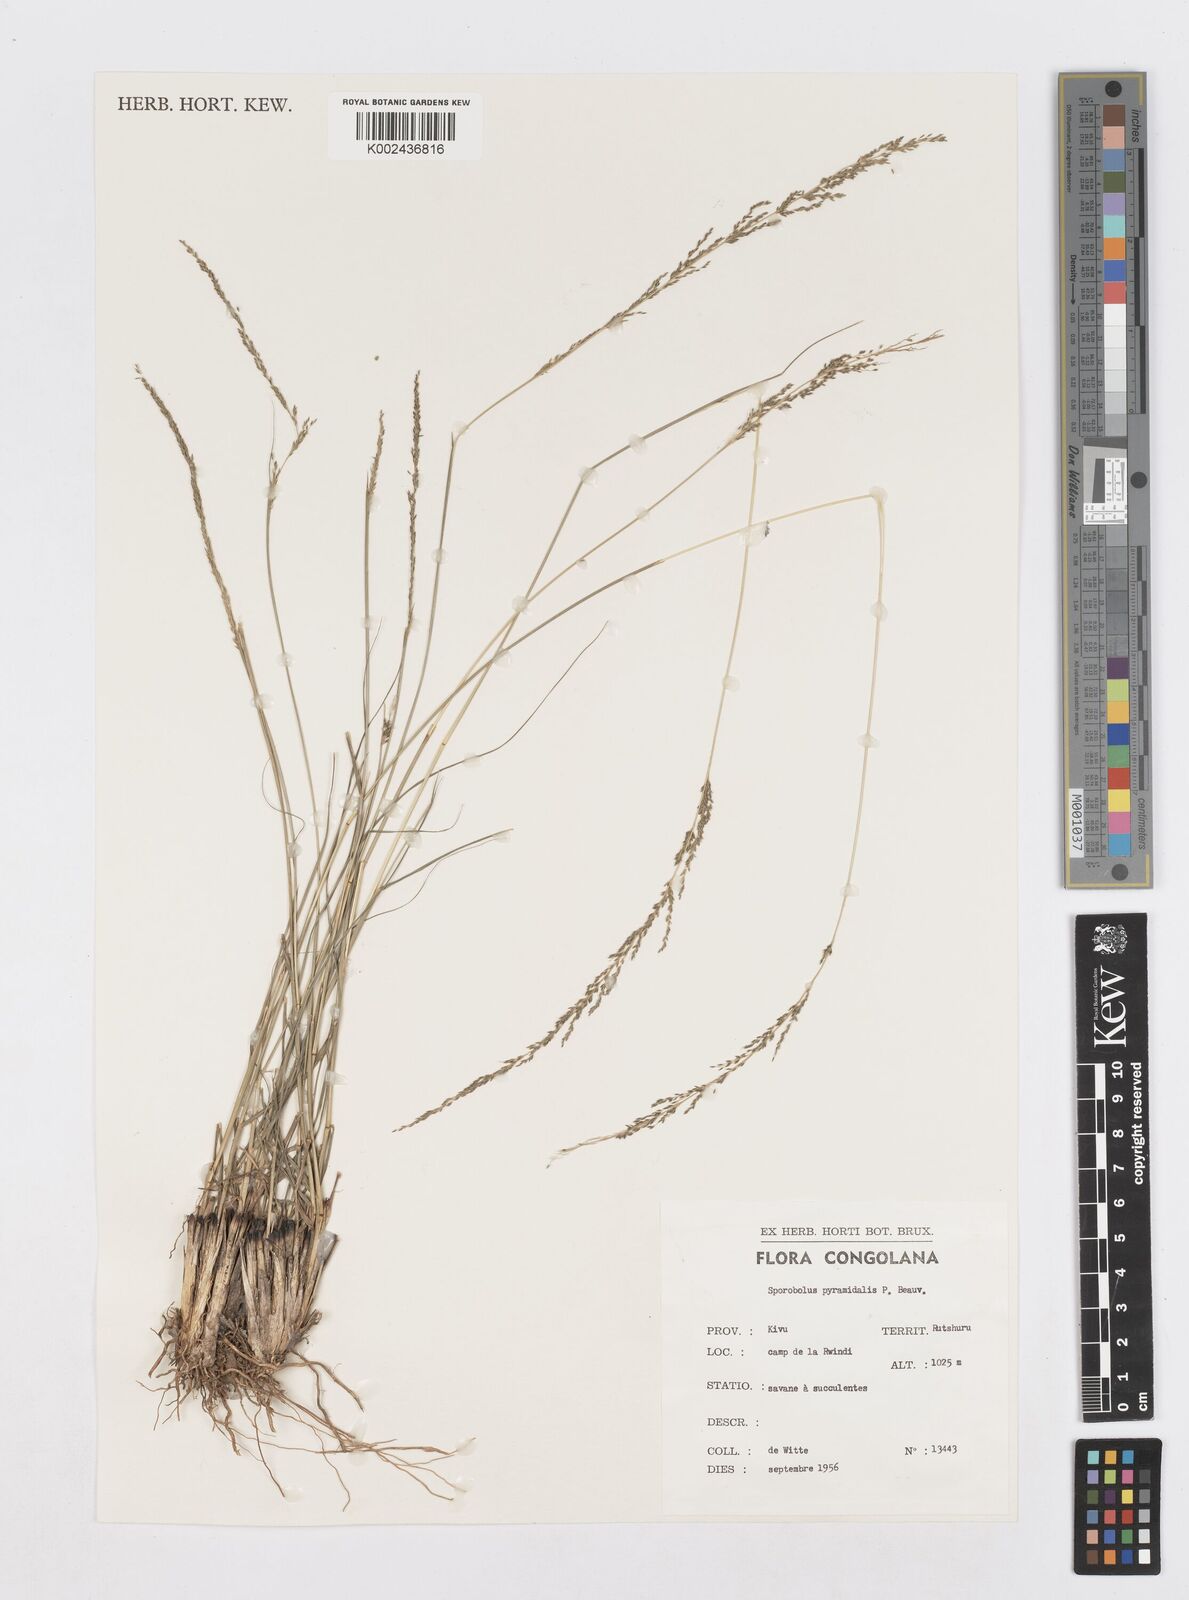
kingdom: Plantae
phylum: Tracheophyta
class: Liliopsida
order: Poales
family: Poaceae
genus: Sporobolus
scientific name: Sporobolus pyramidalis
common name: West indian dropseed
